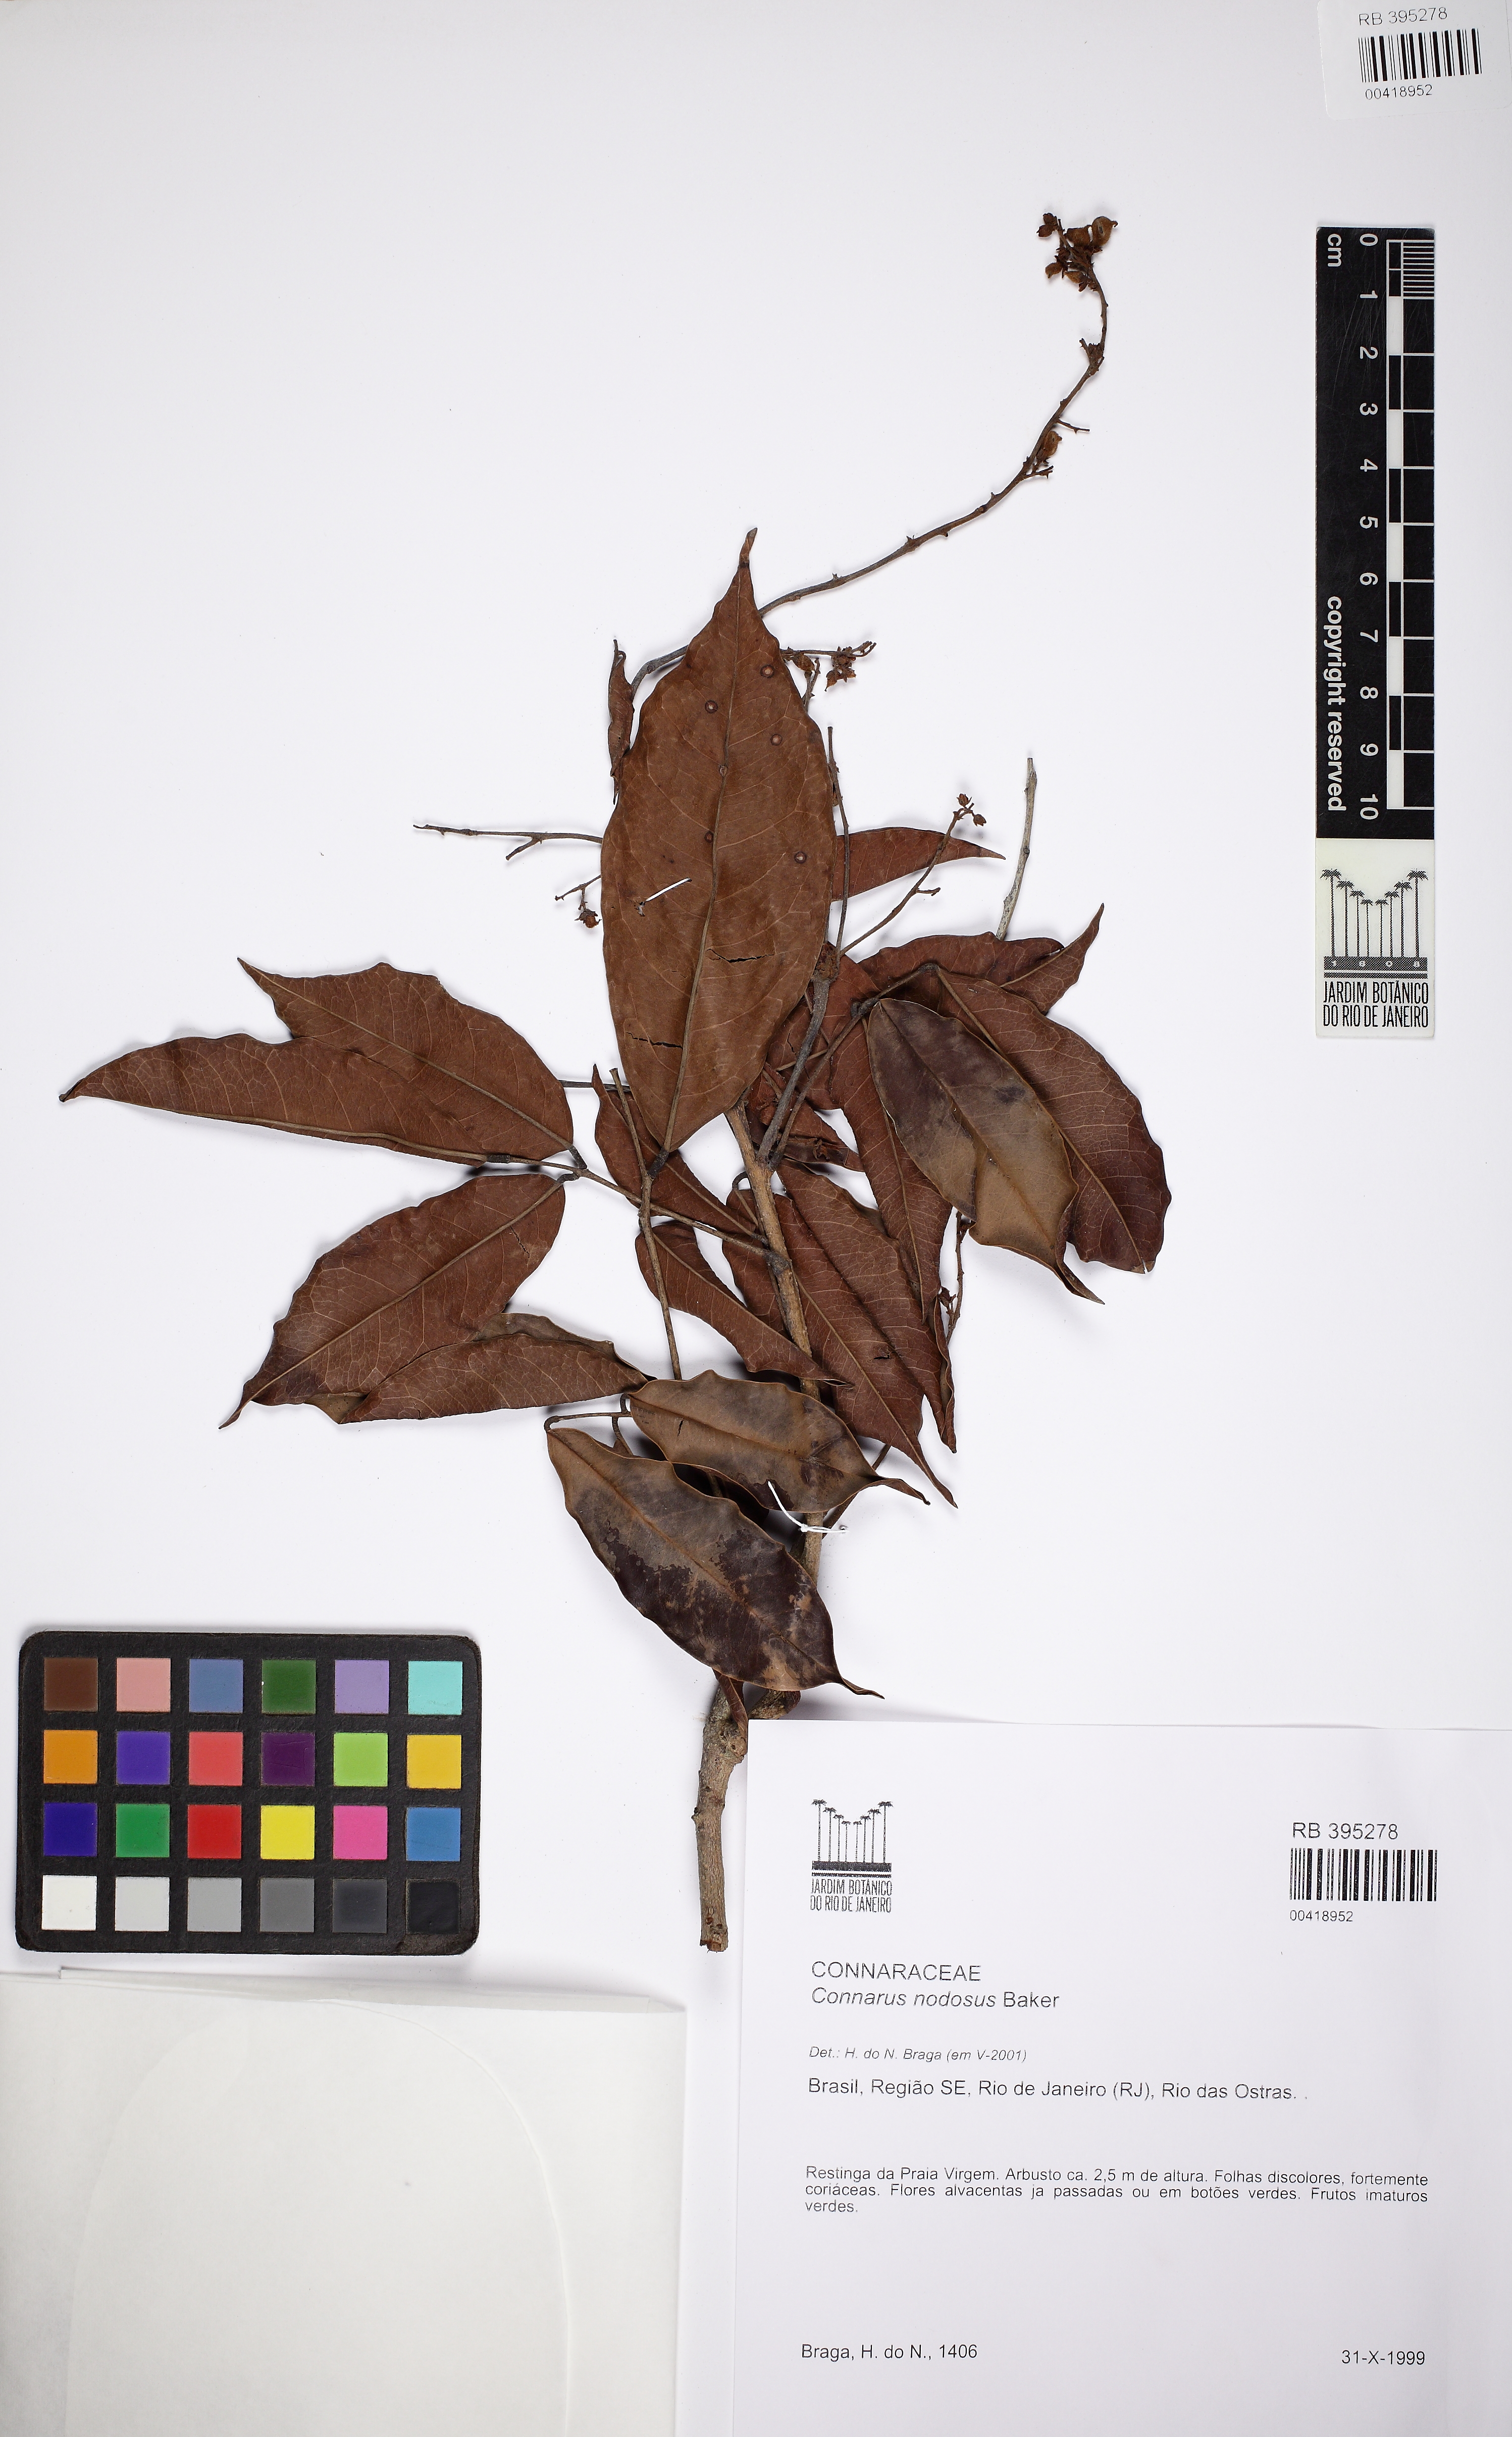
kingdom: Plantae
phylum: Tracheophyta
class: Magnoliopsida
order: Oxalidales
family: Connaraceae
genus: Connarus
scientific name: Connarus nodosus
